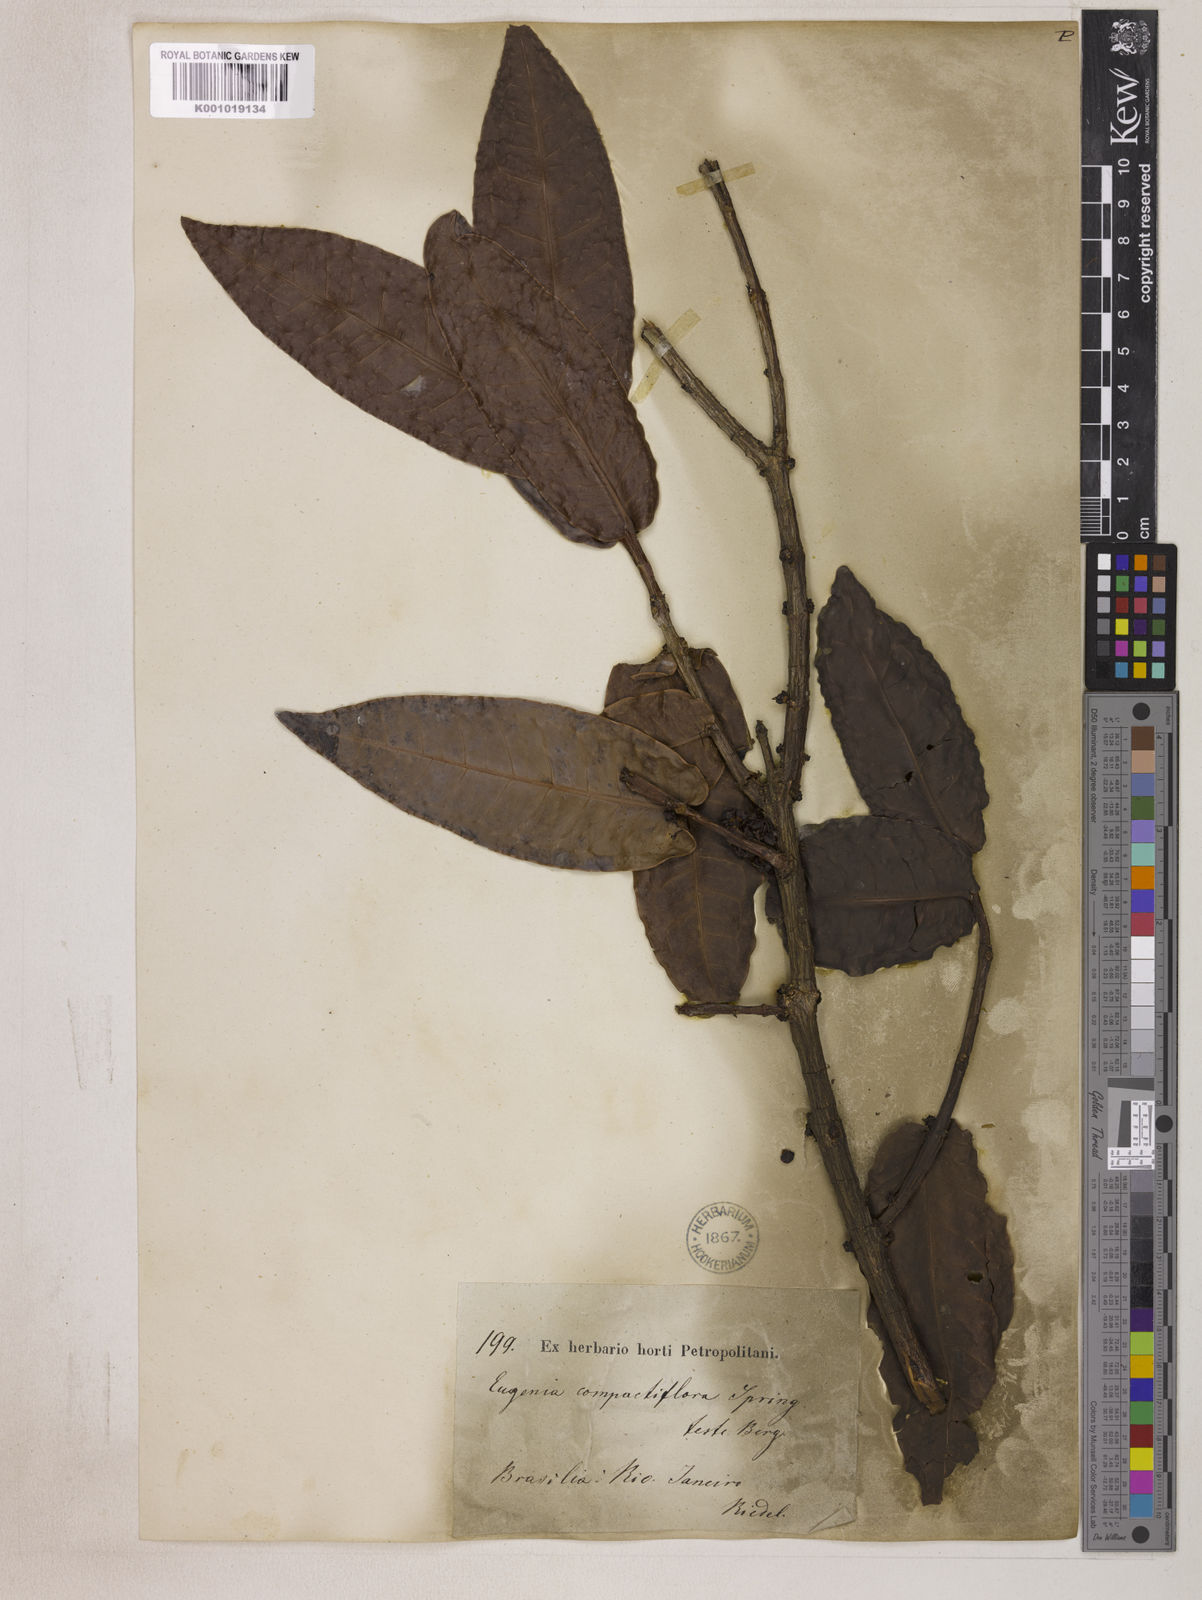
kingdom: Plantae
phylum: Tracheophyta
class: Magnoliopsida
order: Myrtales
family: Myrtaceae
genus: Eugenia
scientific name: Eugenia monosperma
